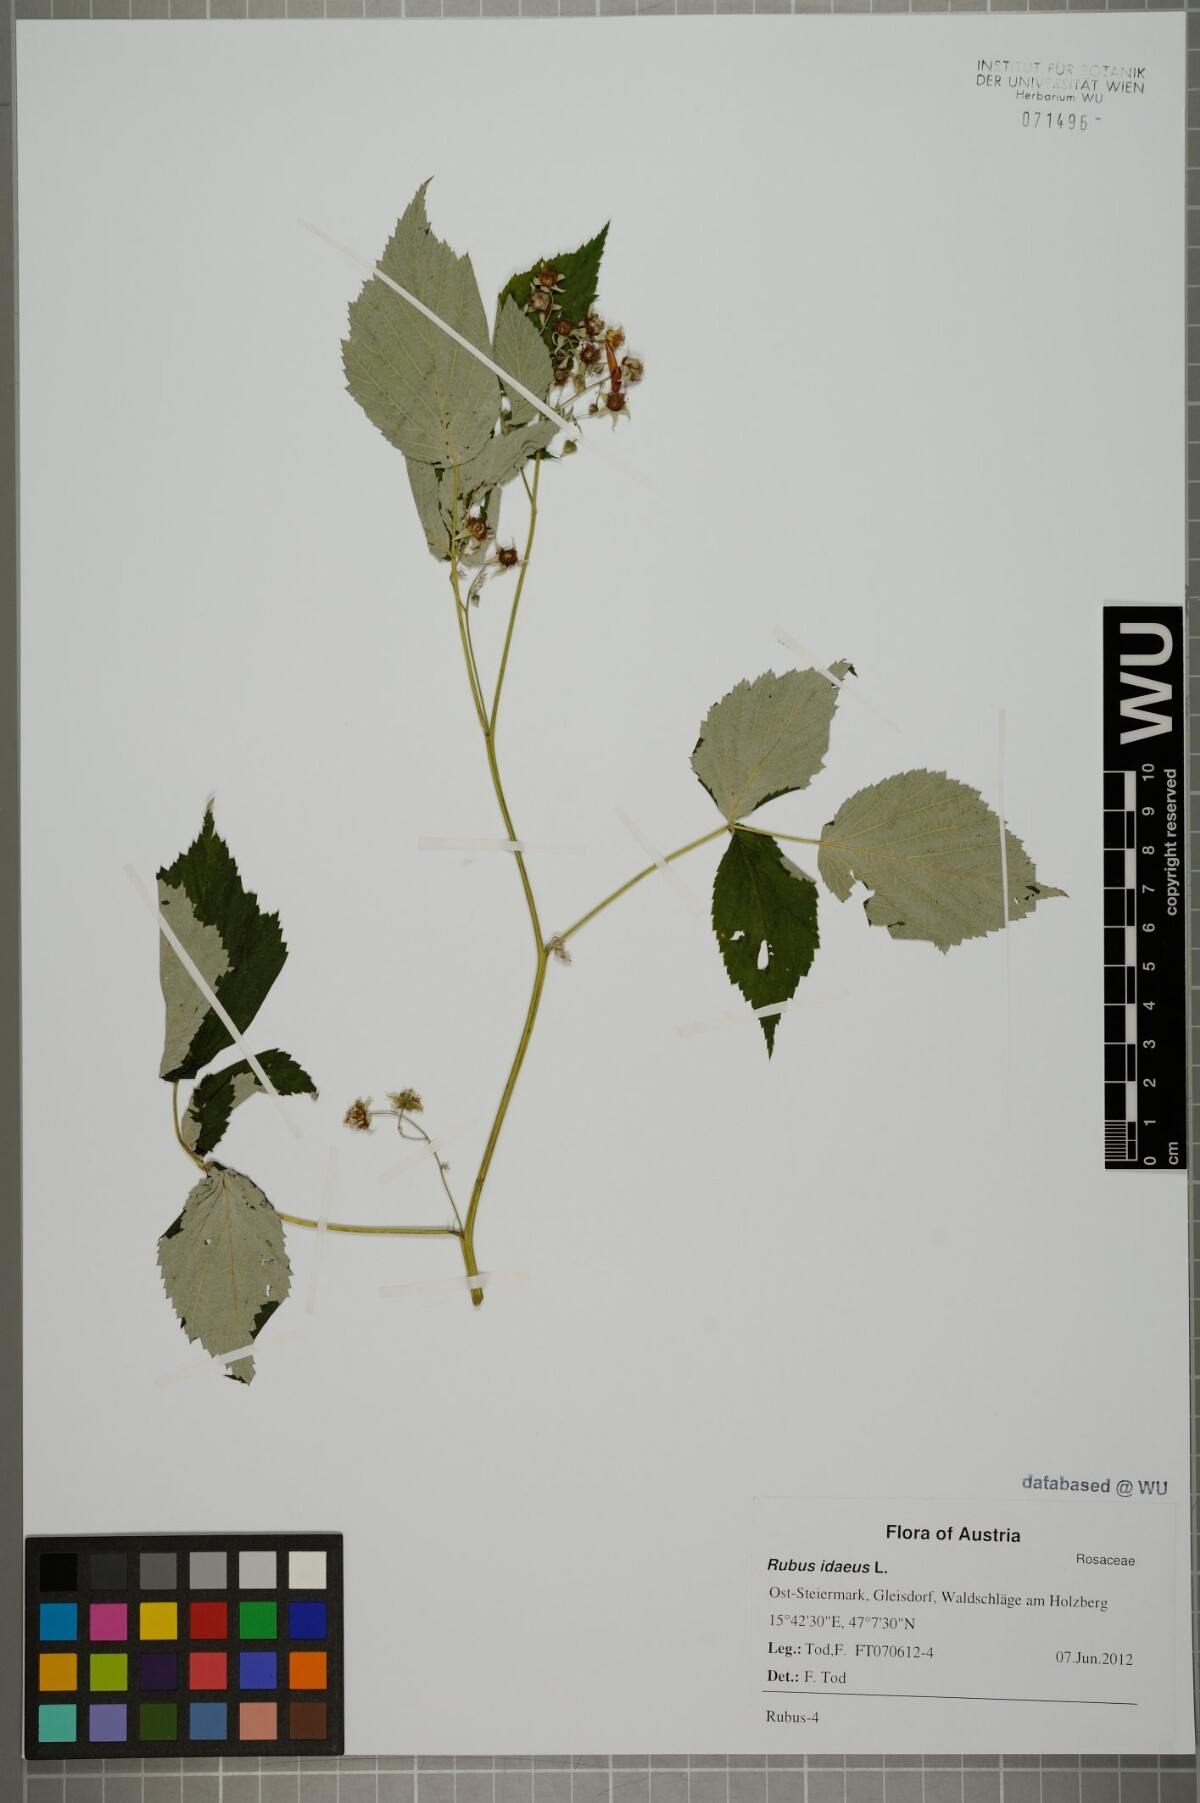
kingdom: Plantae
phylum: Tracheophyta
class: Magnoliopsida
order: Rosales
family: Rosaceae
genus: Rubus
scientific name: Rubus idaeus
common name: Raspberry
